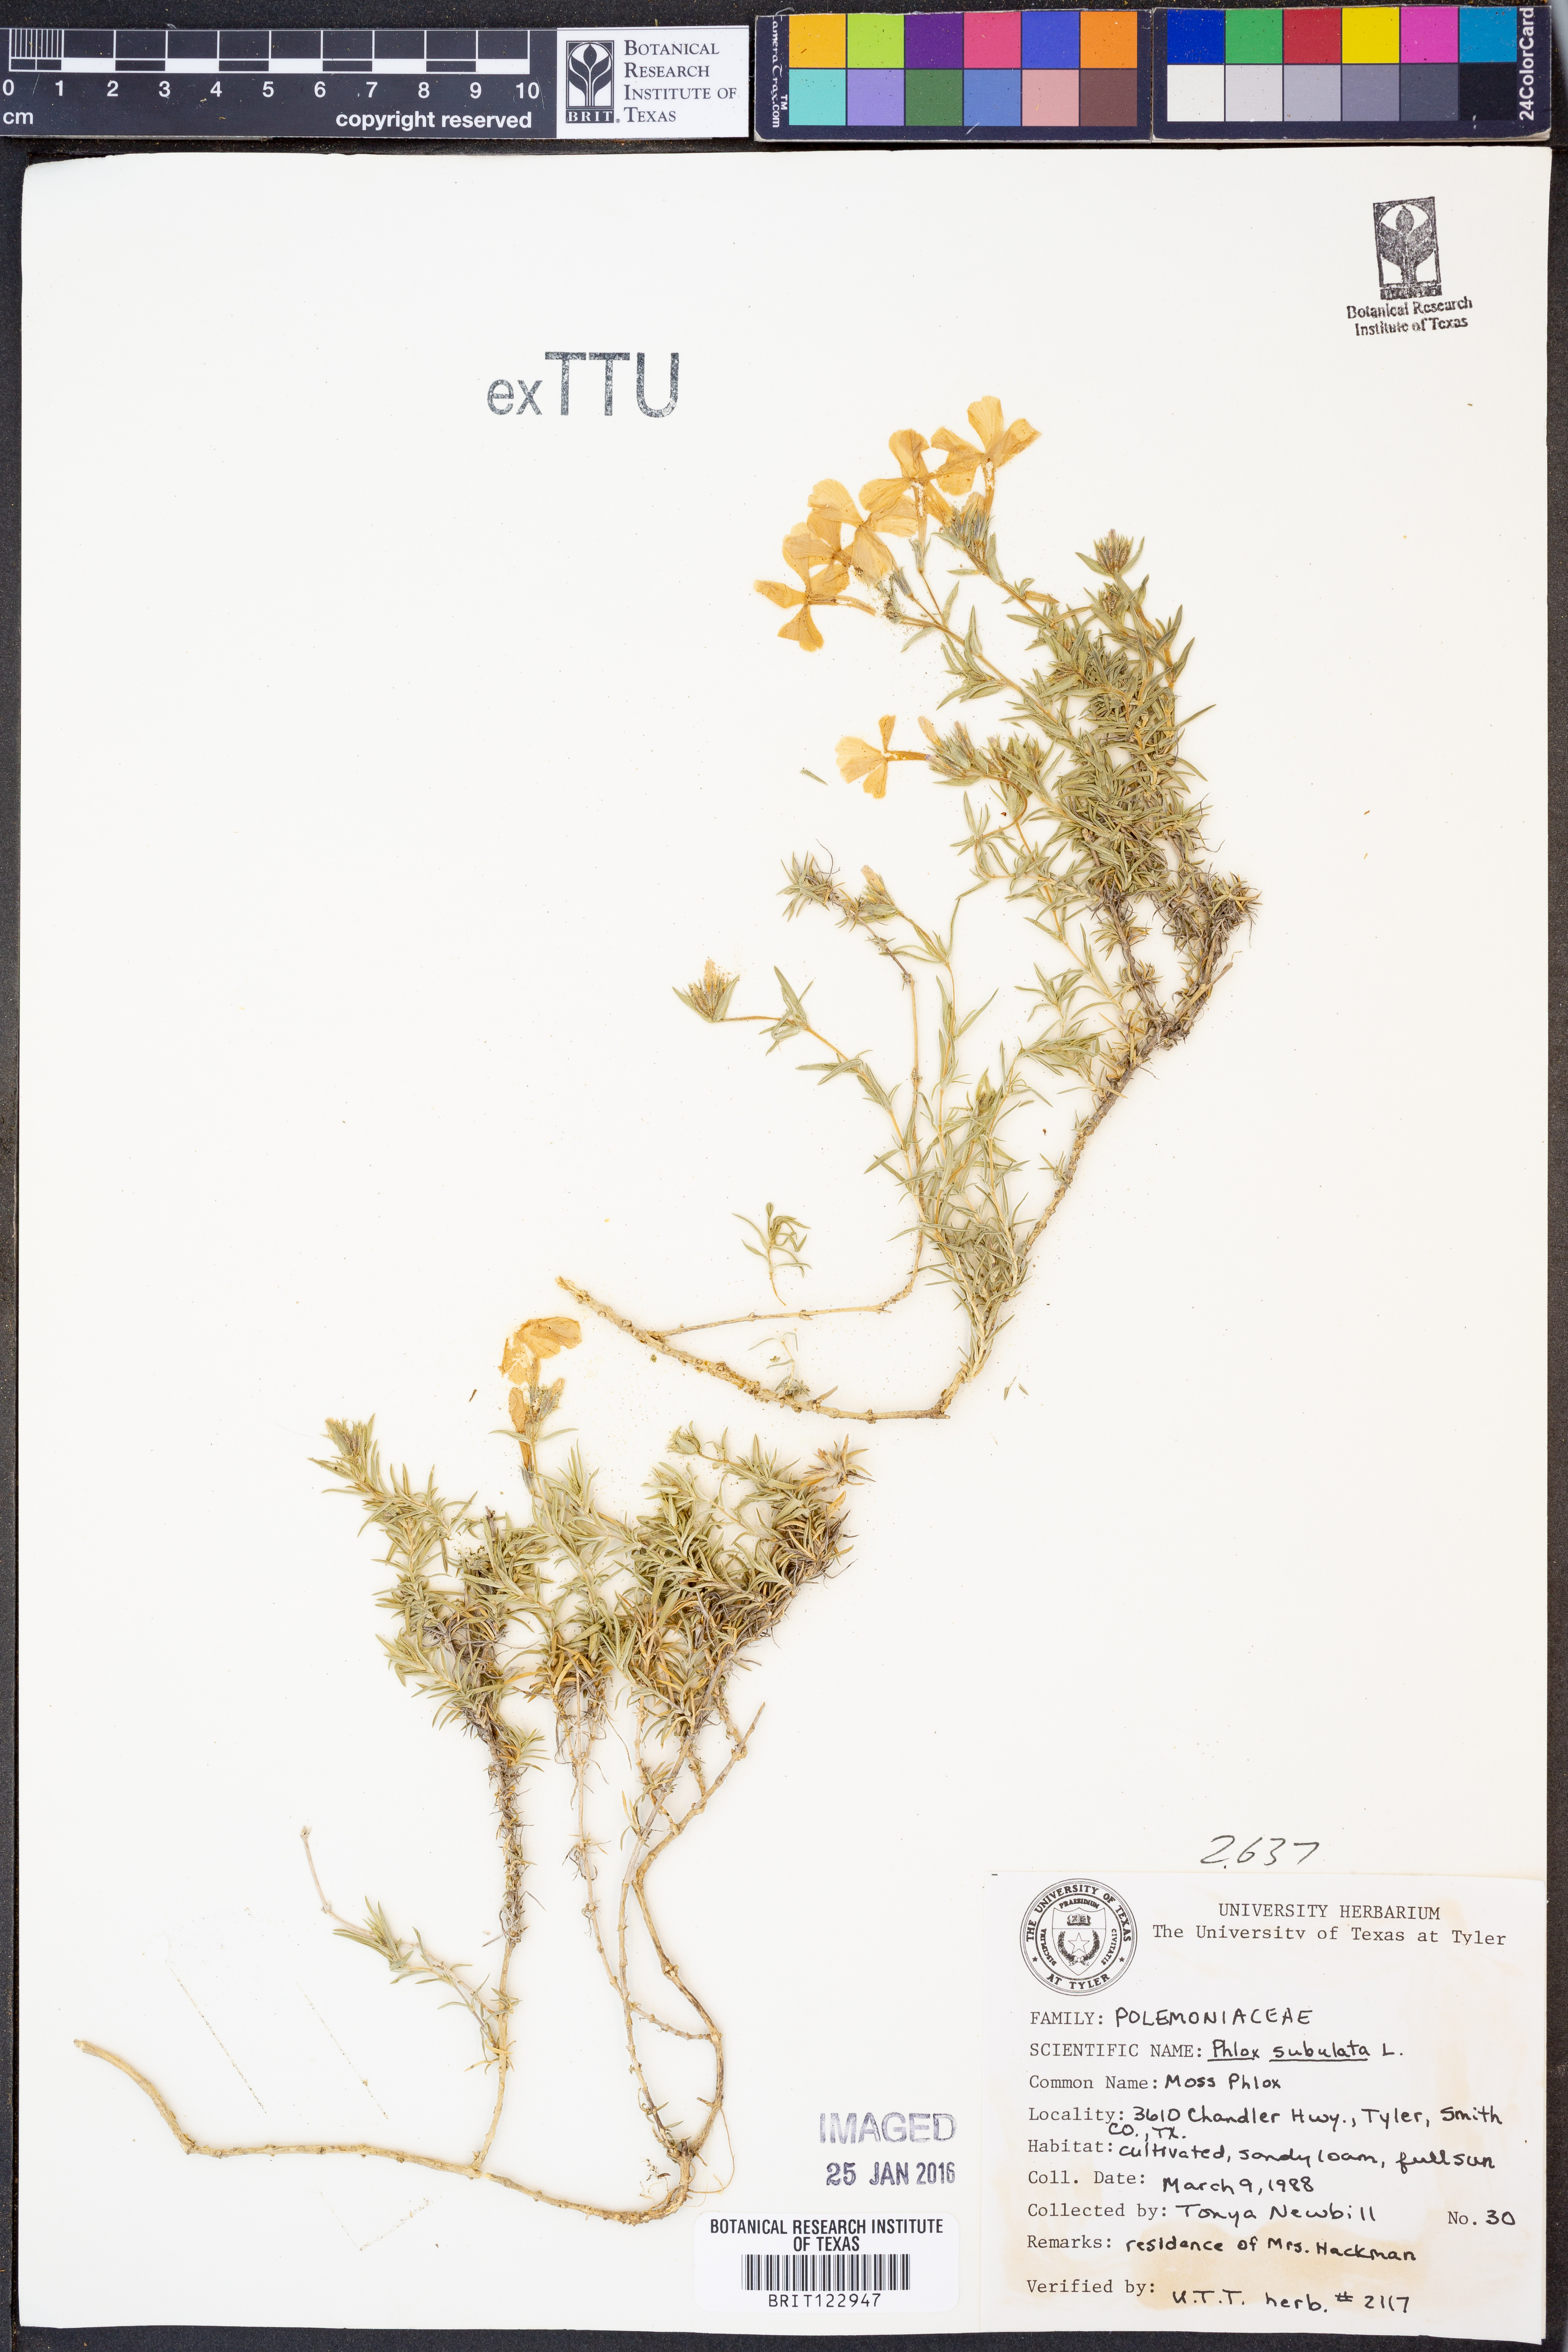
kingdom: Plantae
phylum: Tracheophyta
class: Magnoliopsida
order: Ericales
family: Polemoniaceae
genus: Phlox
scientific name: Phlox subulata
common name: Moss phlox
